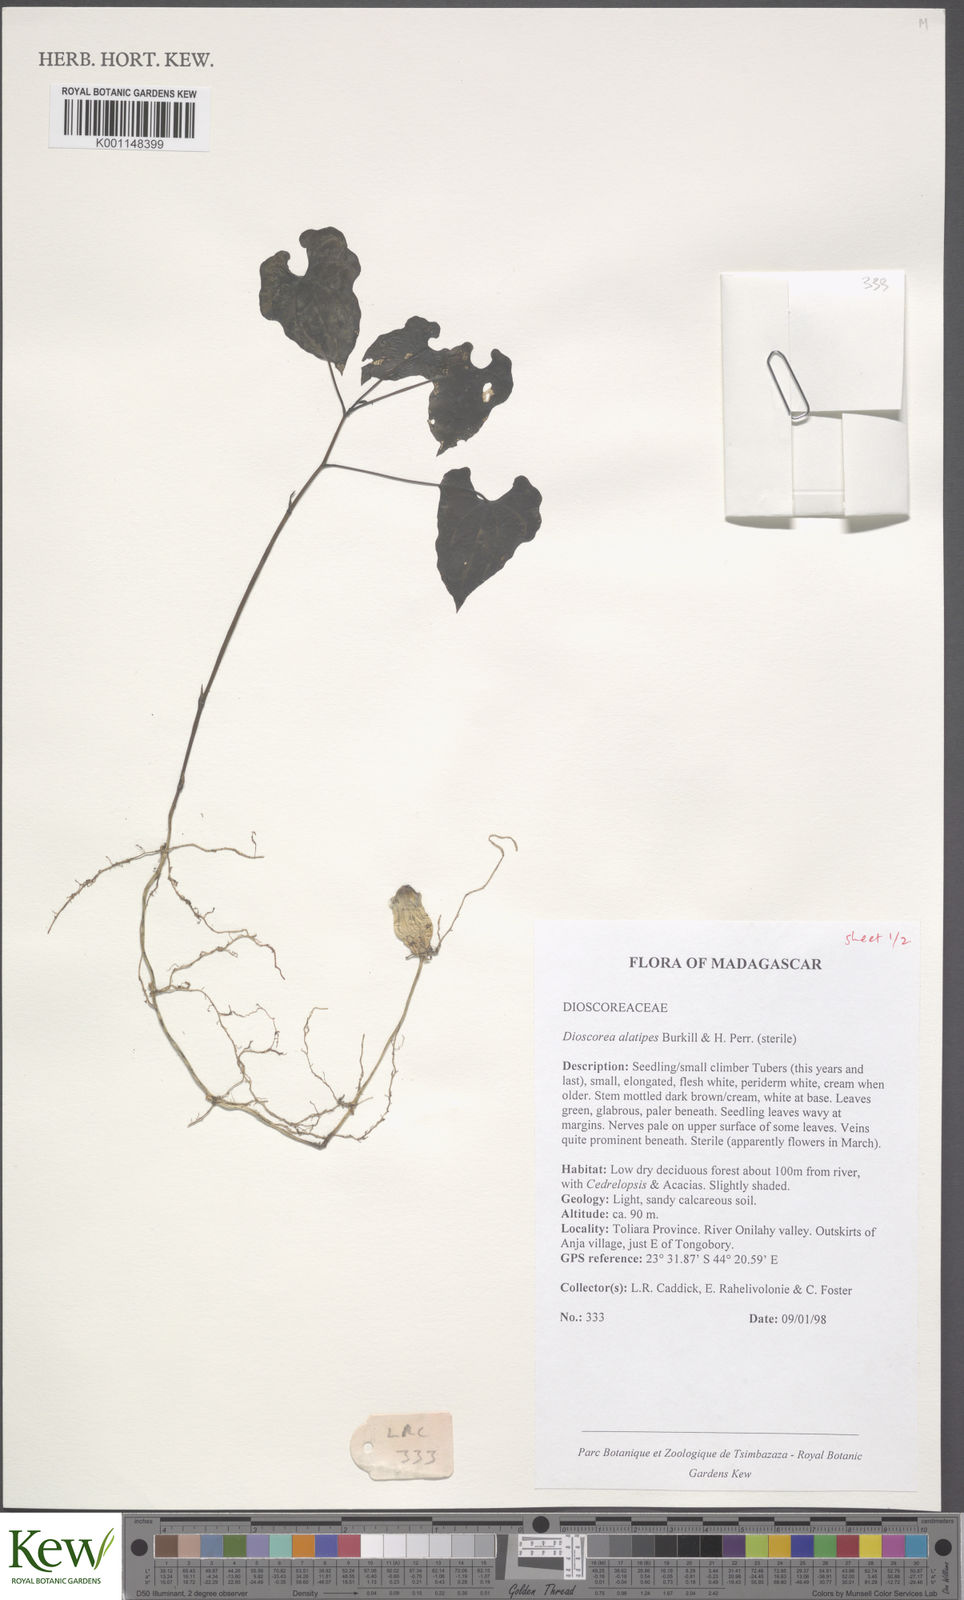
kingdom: Plantae
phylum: Tracheophyta
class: Liliopsida
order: Dioscoreales
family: Dioscoreaceae
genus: Dioscorea
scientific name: Dioscorea alatipes
